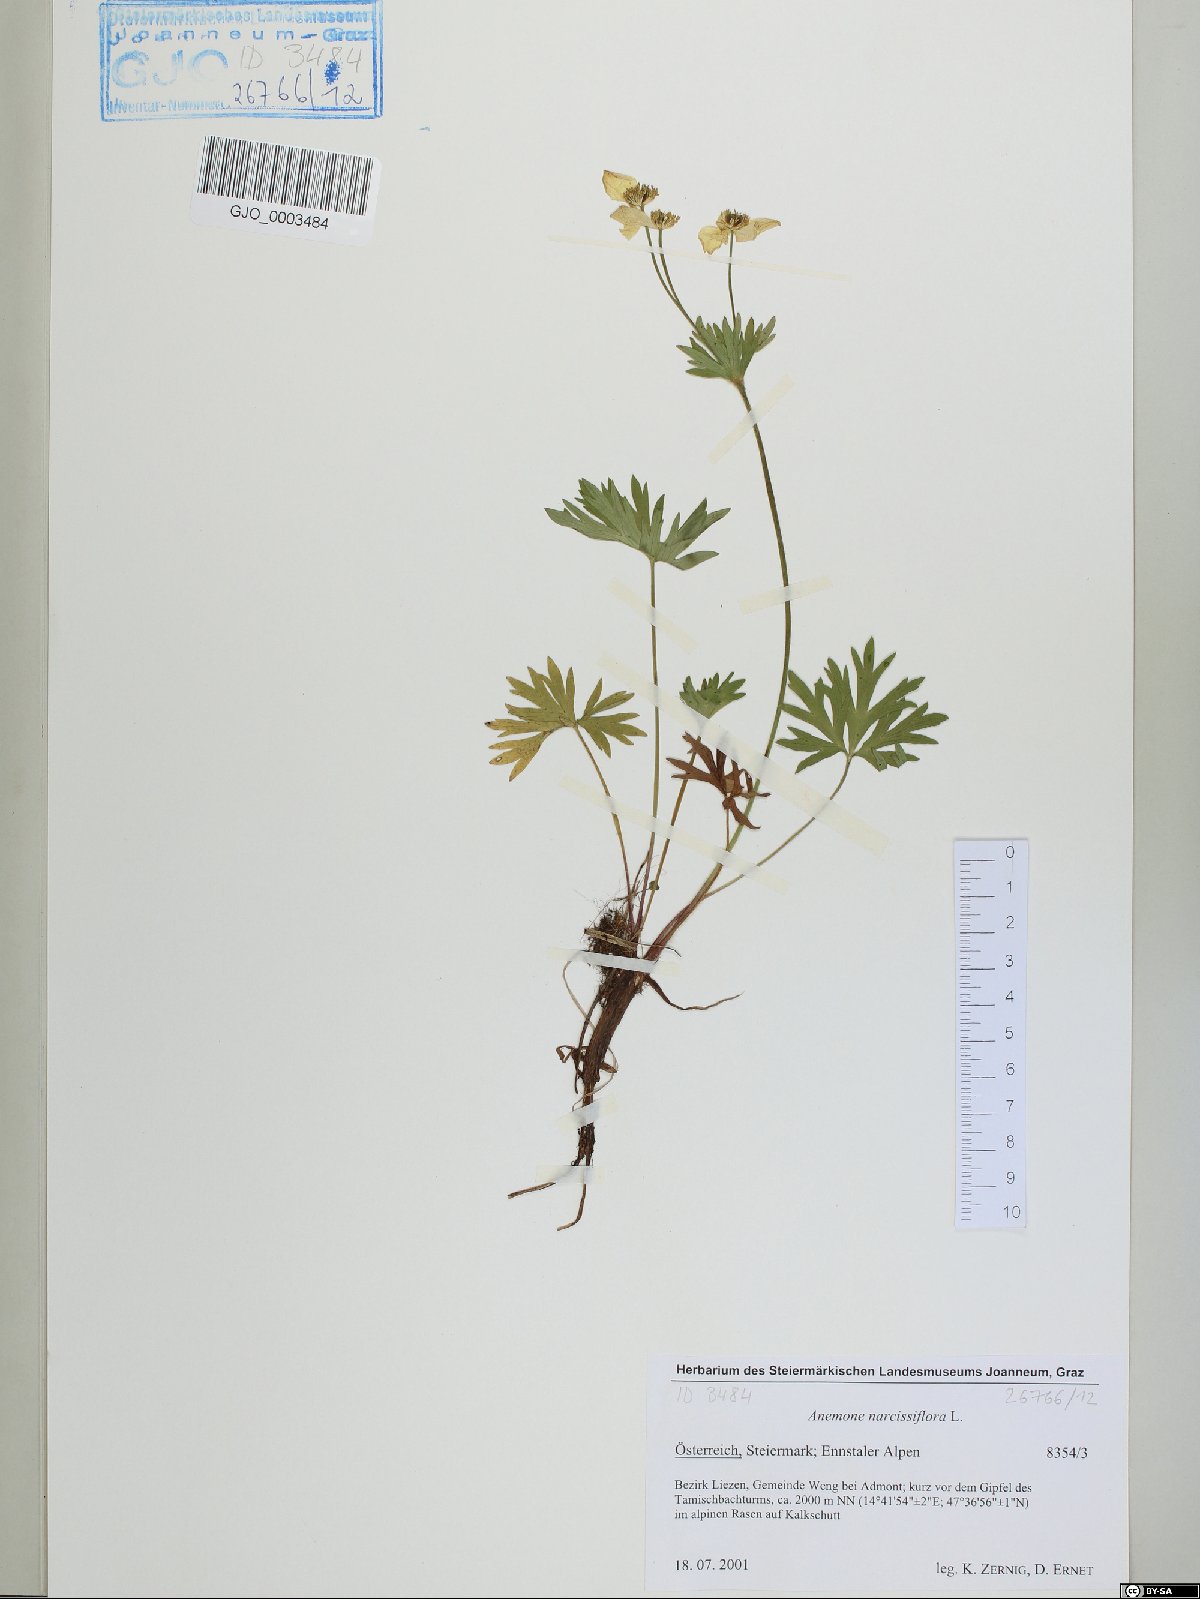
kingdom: Plantae
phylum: Tracheophyta
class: Magnoliopsida
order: Ranunculales
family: Ranunculaceae
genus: Anemonastrum
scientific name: Anemonastrum narcissiflorum
